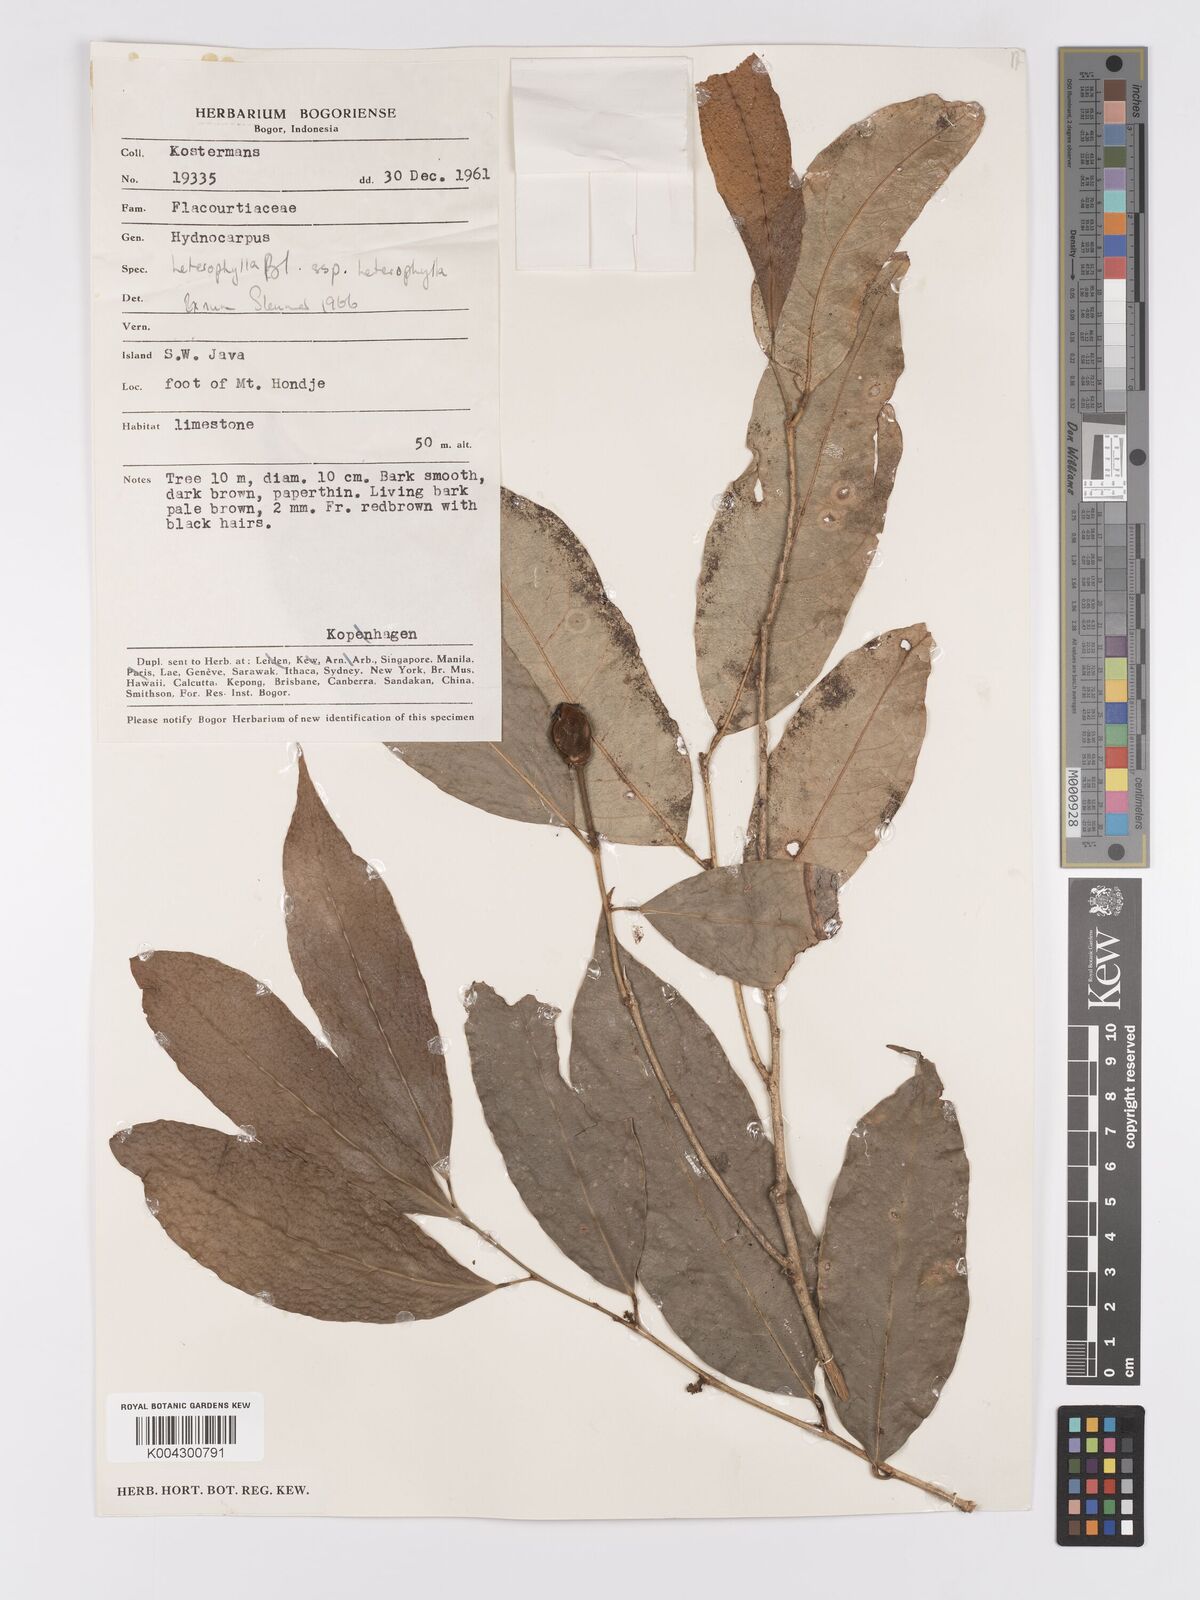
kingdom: Plantae
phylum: Tracheophyta
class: Magnoliopsida
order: Malpighiales
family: Achariaceae
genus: Hydnocarpus
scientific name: Hydnocarpus heterophyllus
